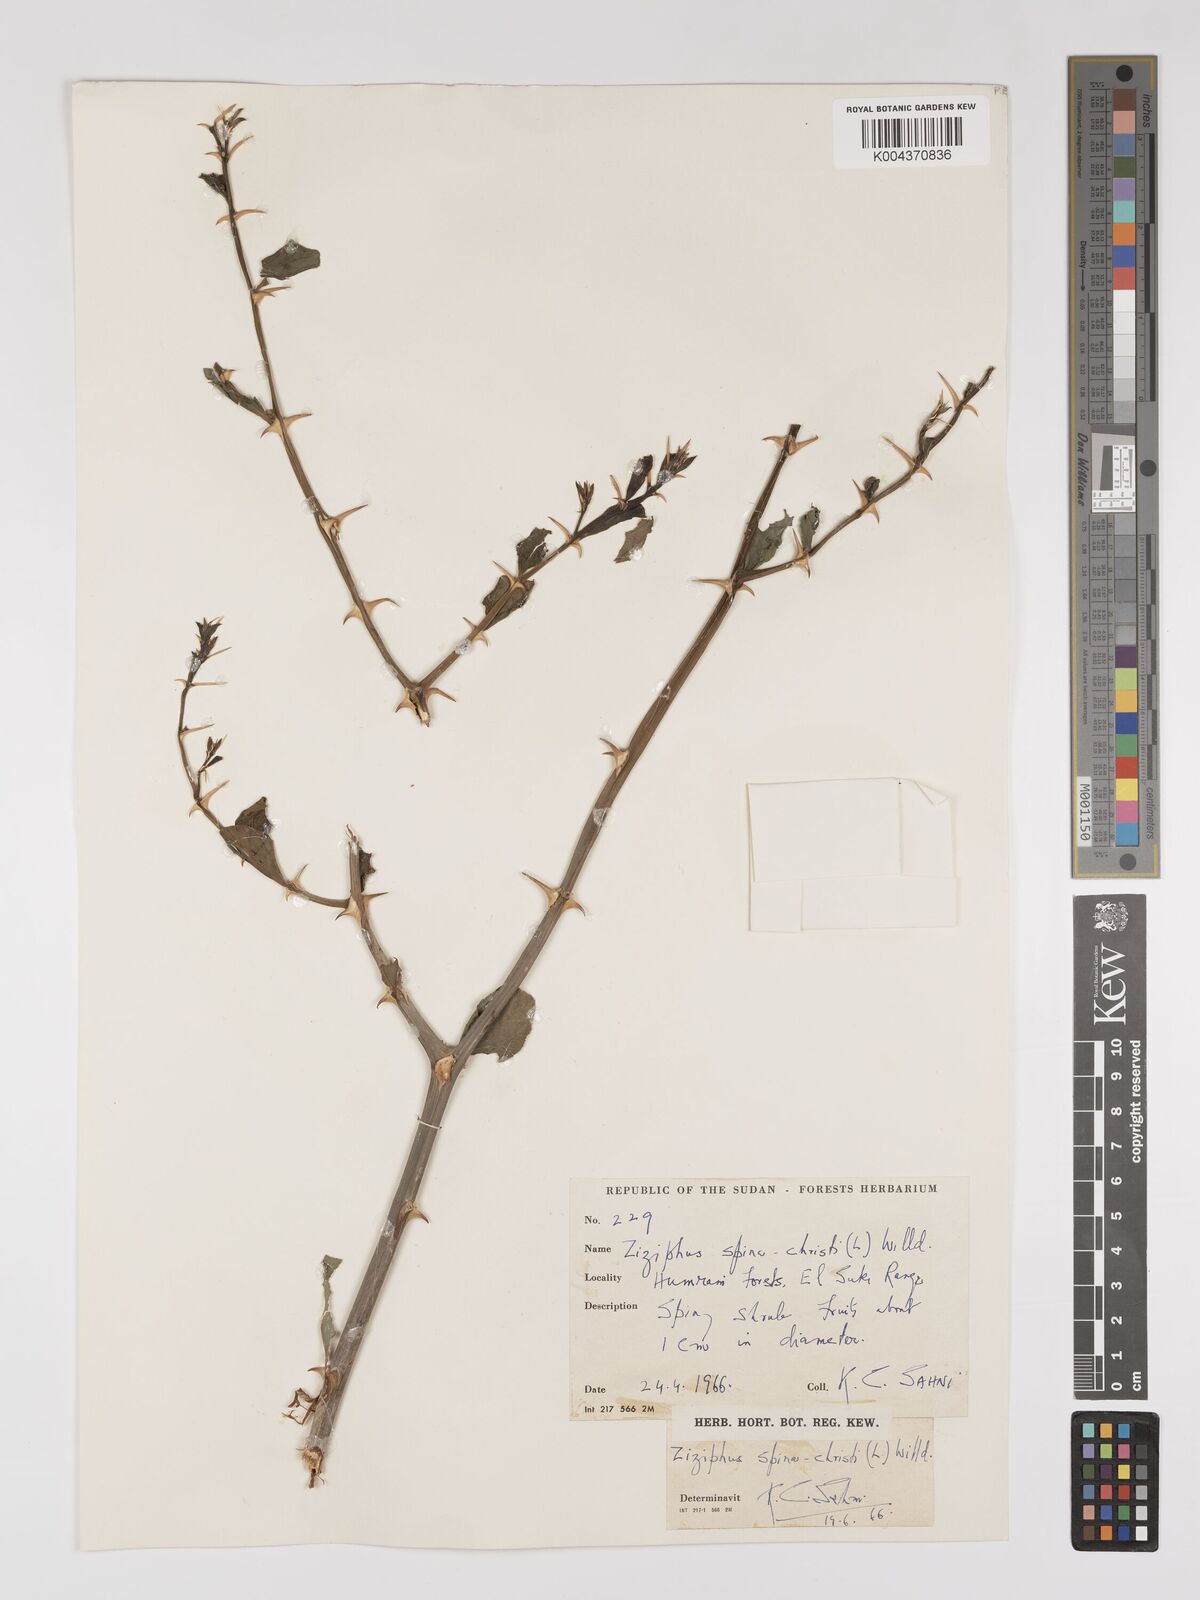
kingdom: Plantae
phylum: Tracheophyta
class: Magnoliopsida
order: Rosales
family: Rhamnaceae
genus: Ziziphus
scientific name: Ziziphus spina-christi
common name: Syrian christ-thorn
